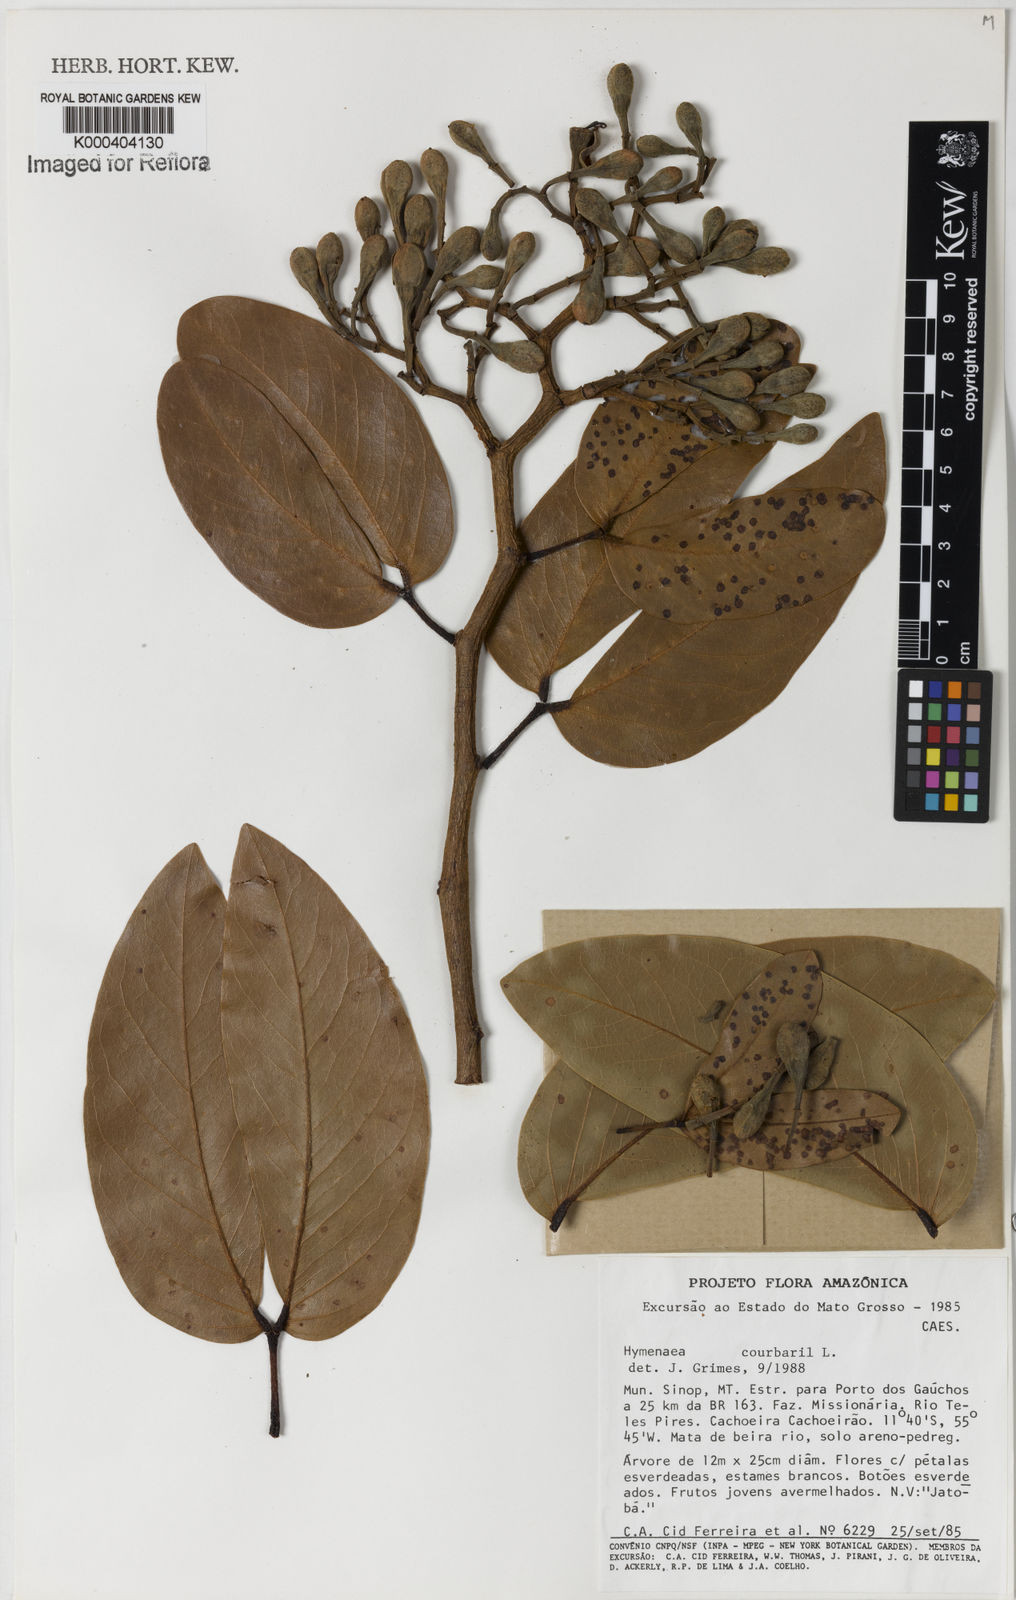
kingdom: Plantae
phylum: Tracheophyta
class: Magnoliopsida
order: Fabales
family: Fabaceae
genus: Hymenaea
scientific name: Hymenaea courbaril
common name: Brazilian copal
